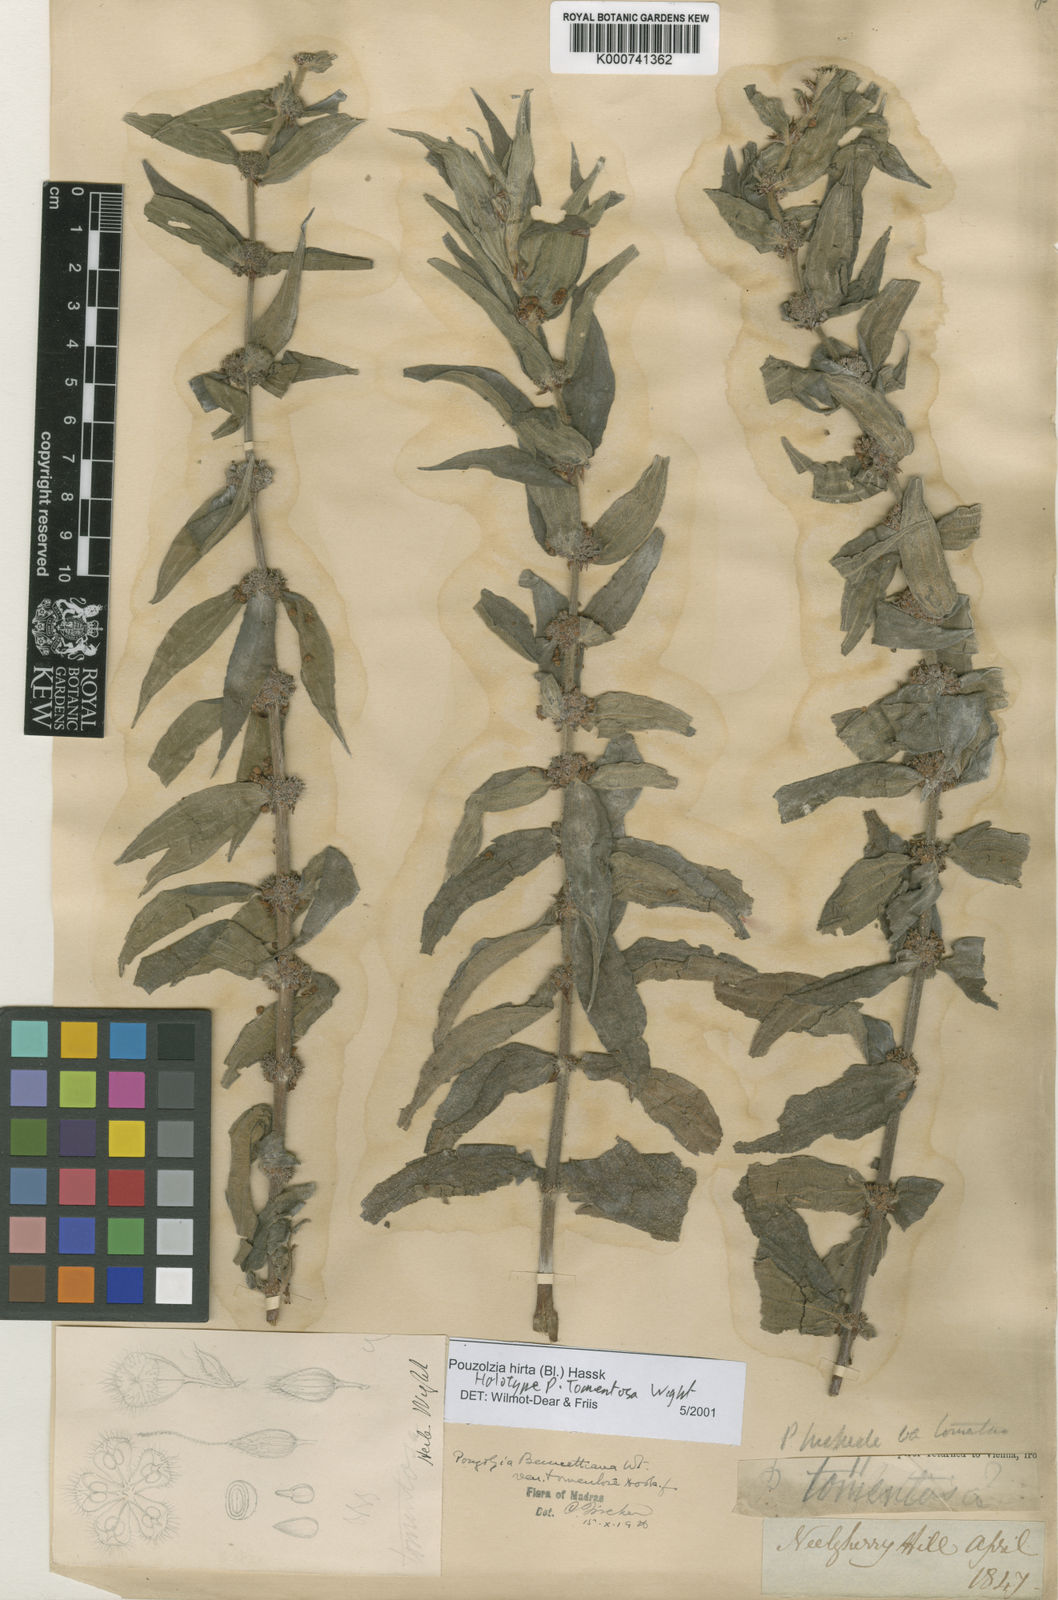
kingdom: Plantae
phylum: Tracheophyta
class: Magnoliopsida
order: Rosales
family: Urticaceae
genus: Gonostegia
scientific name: Gonostegia triandra
